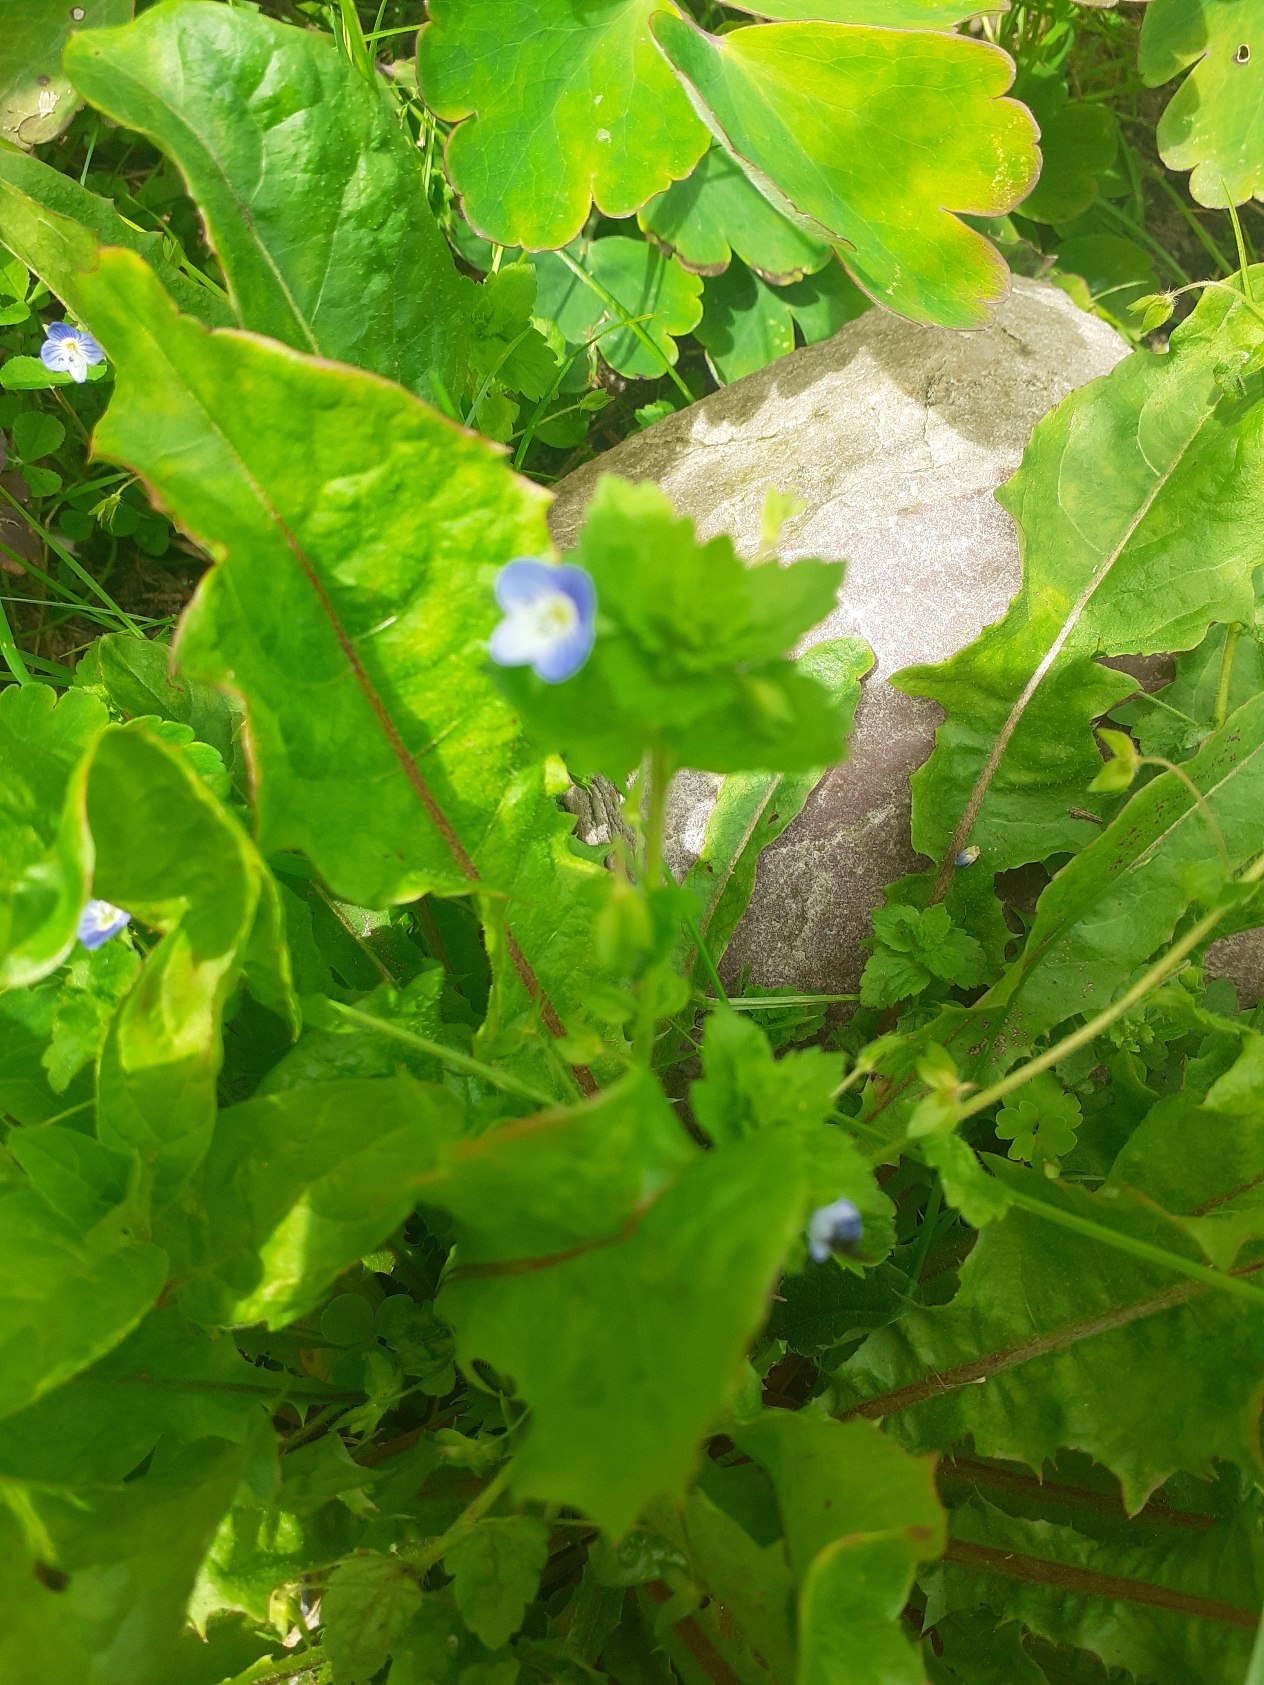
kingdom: Plantae
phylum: Tracheophyta
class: Magnoliopsida
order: Lamiales
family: Plantaginaceae
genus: Veronica
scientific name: Veronica persica
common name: Storkronet ærenpris
